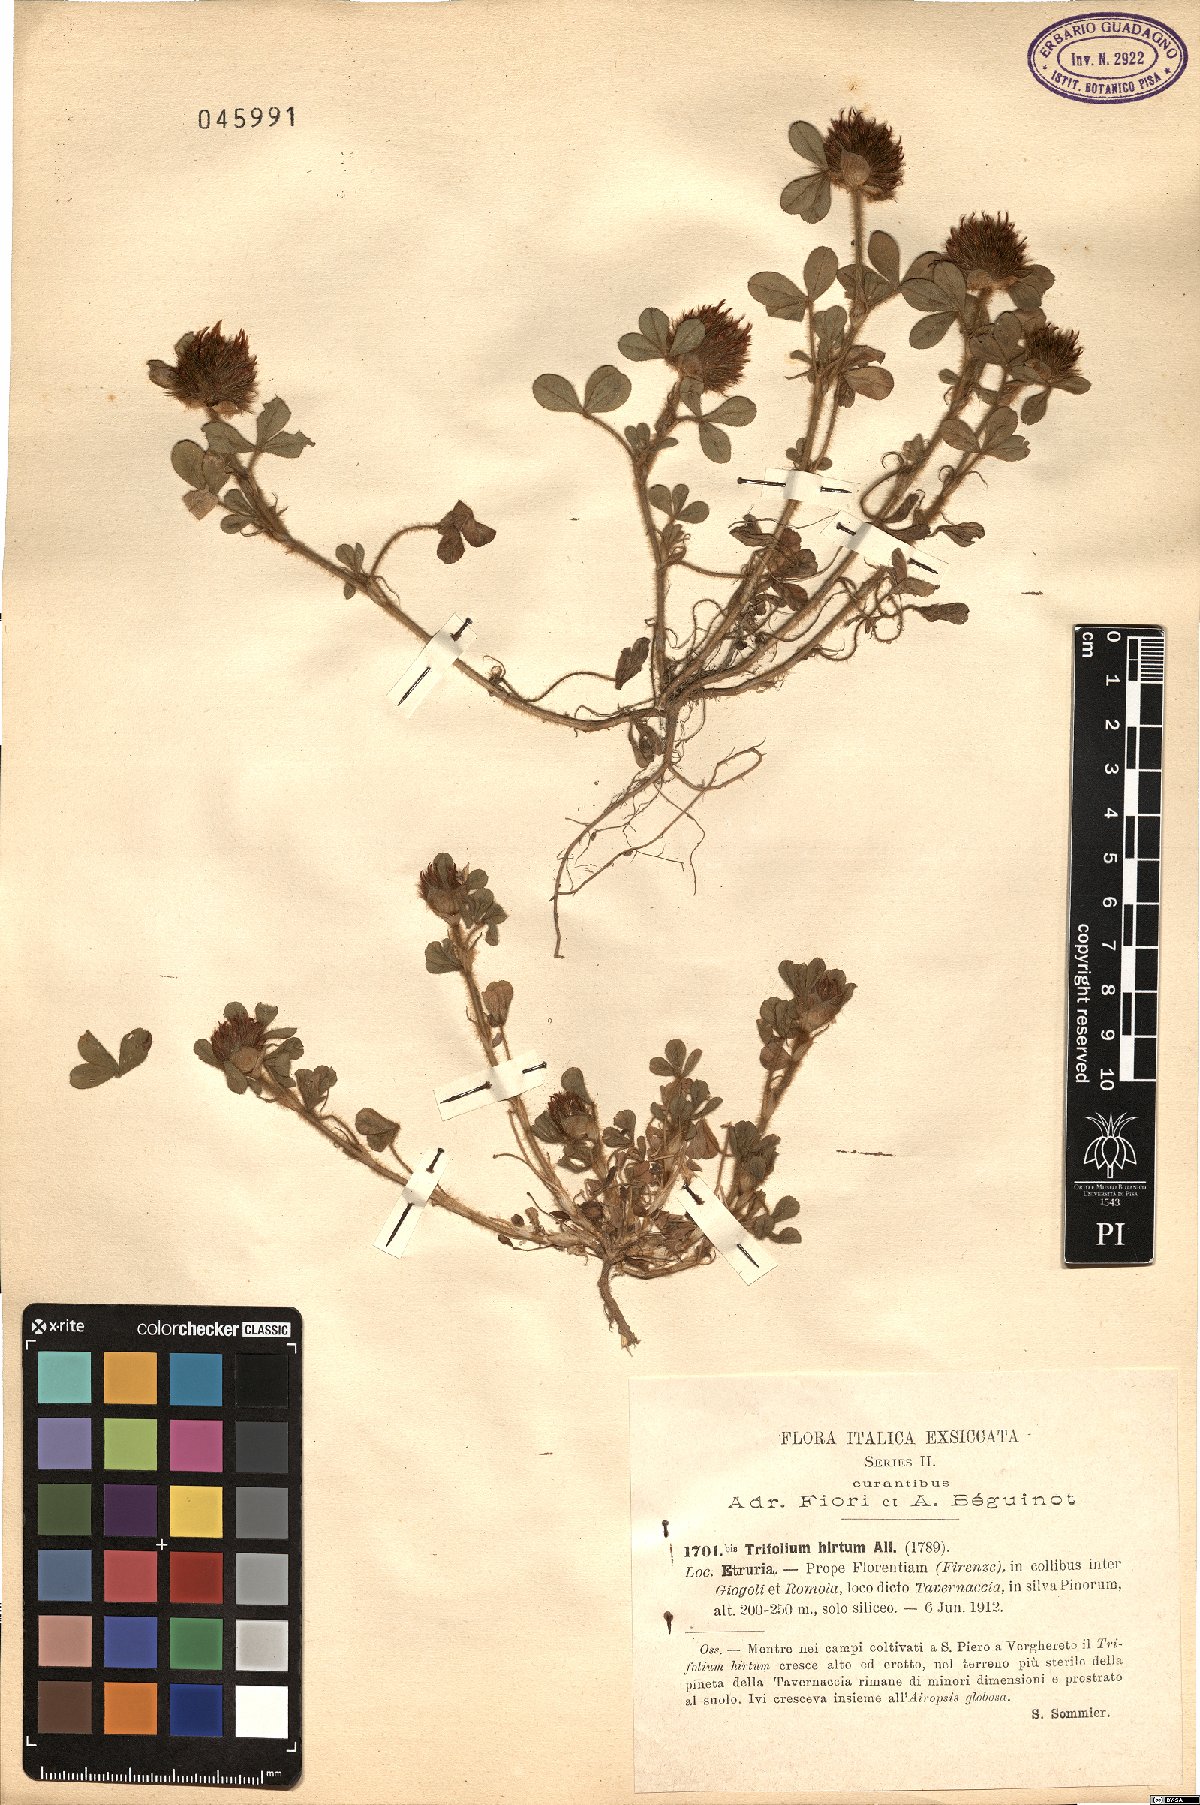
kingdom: Plantae
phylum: Tracheophyta
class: Magnoliopsida
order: Fabales
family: Fabaceae
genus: Trifolium
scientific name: Trifolium hirtum
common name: Rose clover
